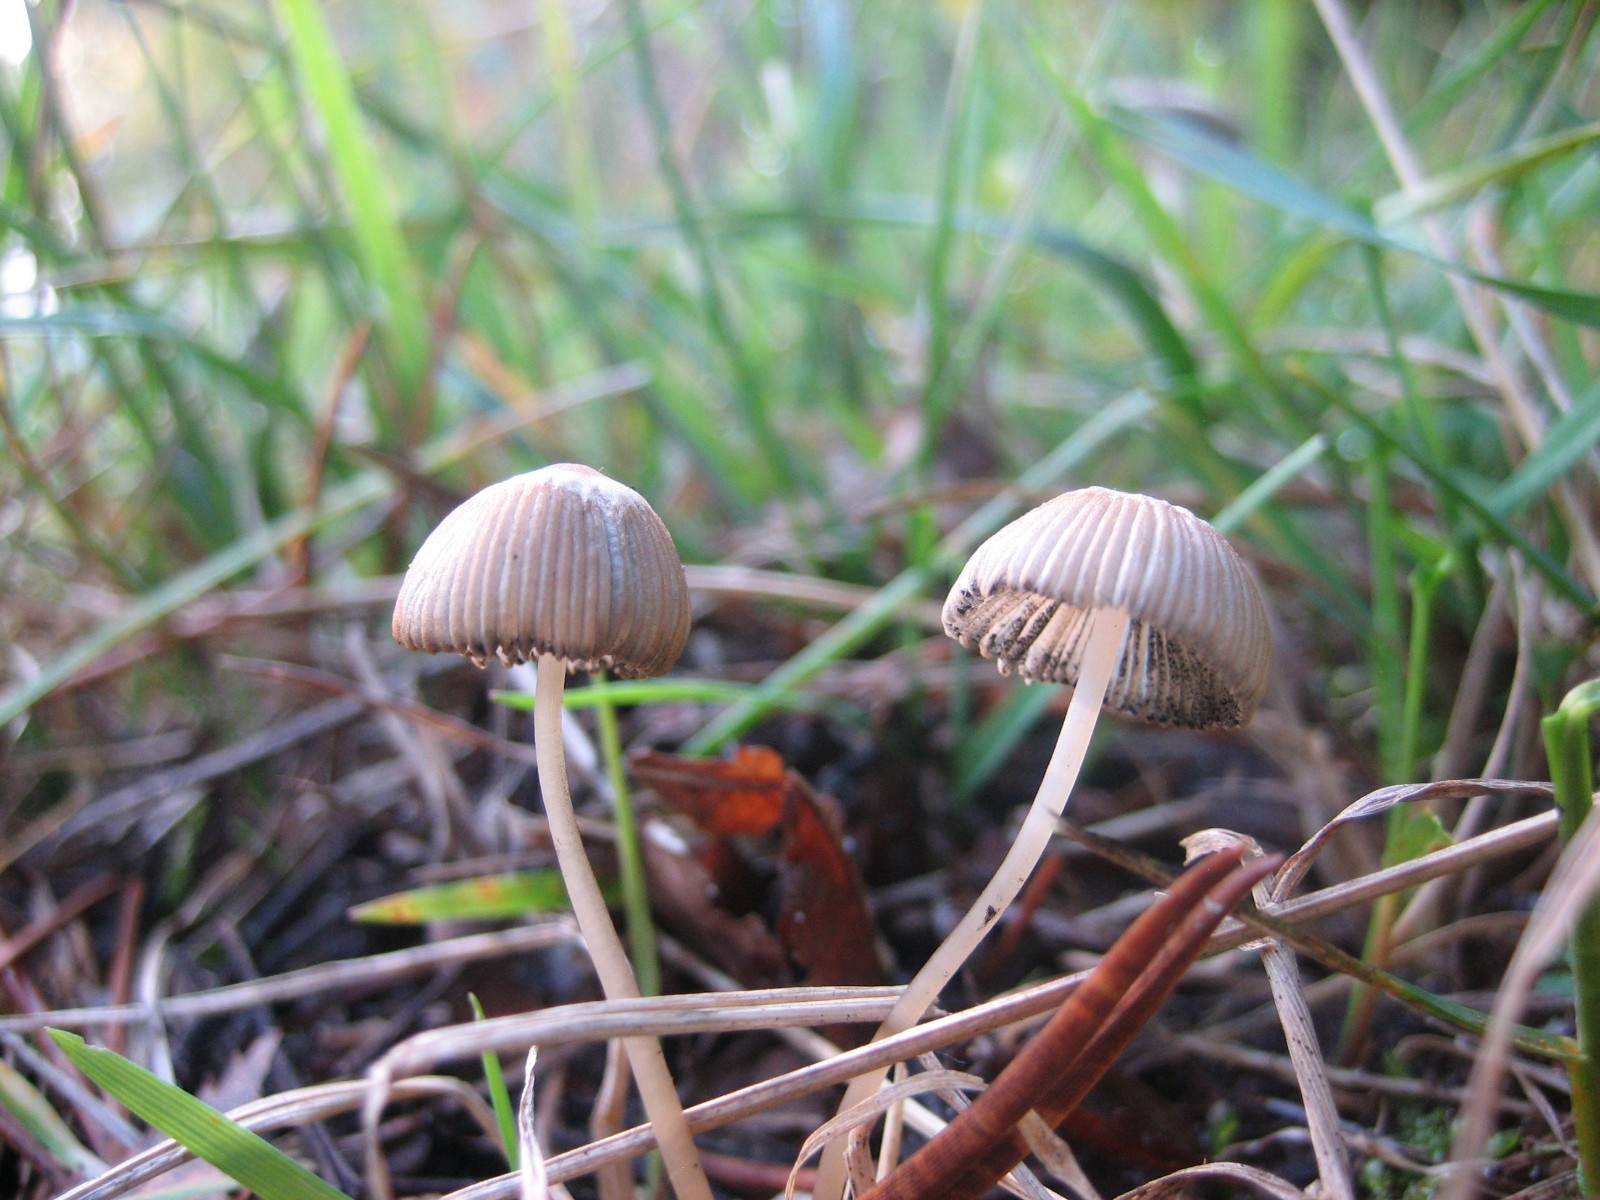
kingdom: Fungi
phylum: Basidiomycota
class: Agaricomycetes
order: Agaricales
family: Psathyrellaceae
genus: Parasola
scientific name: Parasola
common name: hjulhat
